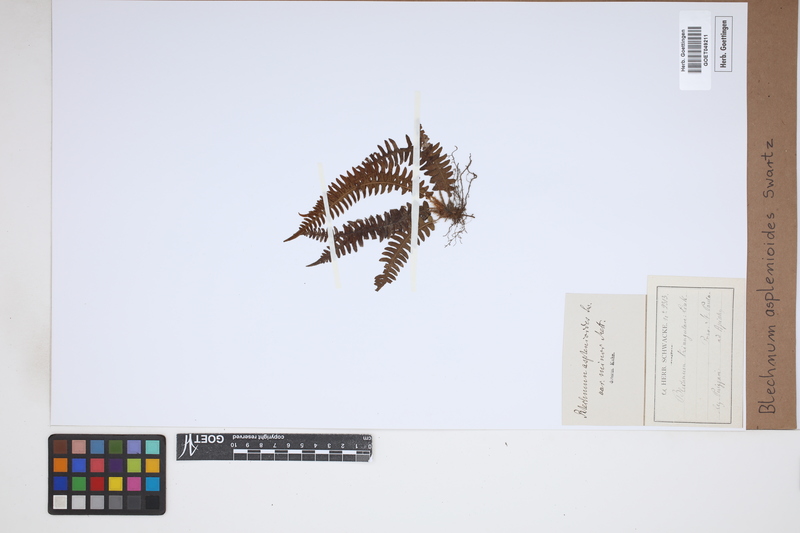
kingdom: Plantae
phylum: Tracheophyta
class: Polypodiopsida
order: Polypodiales
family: Blechnaceae
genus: Blechnum
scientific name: Blechnum asplenioides
